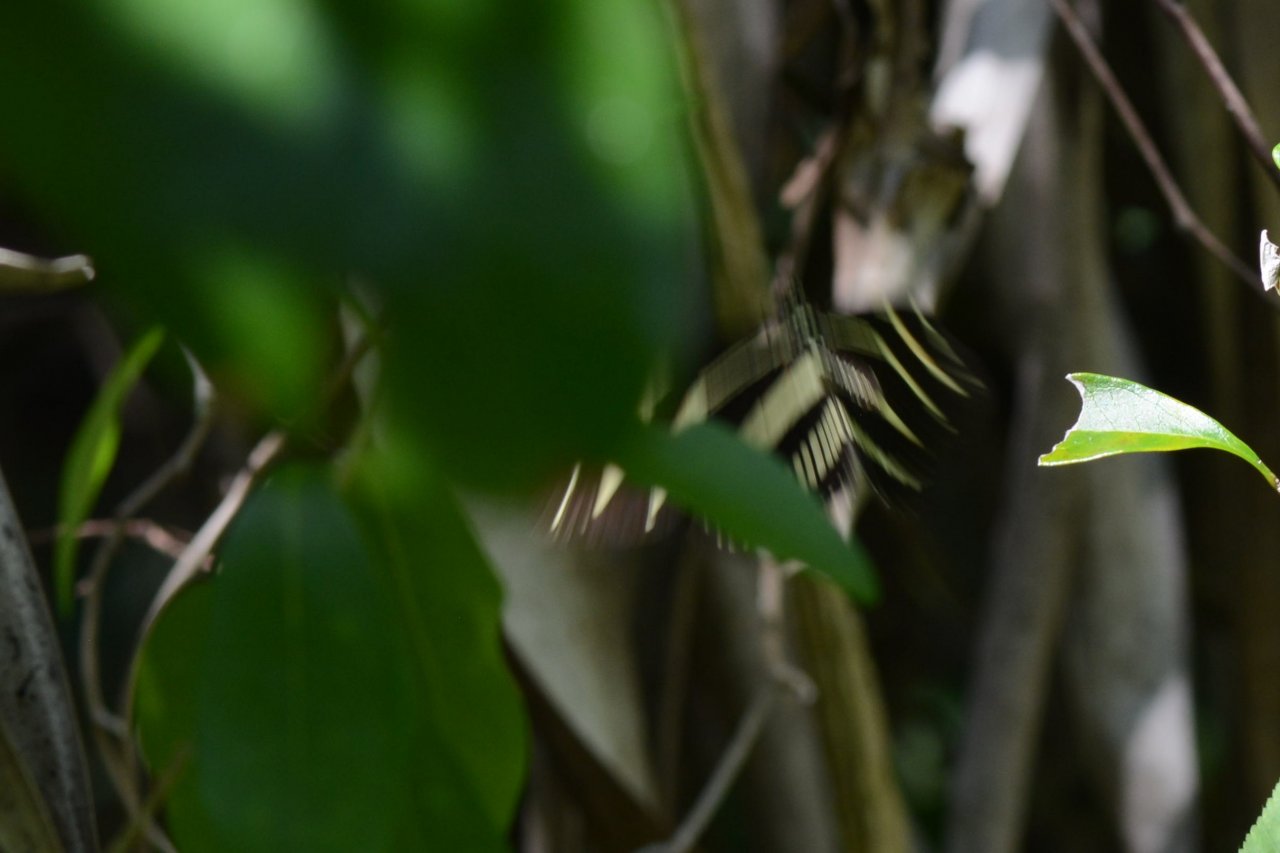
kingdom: Animalia
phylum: Arthropoda
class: Insecta
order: Lepidoptera
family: Nymphalidae
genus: Heliconius
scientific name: Heliconius charithonia
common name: Zebra Longwing
